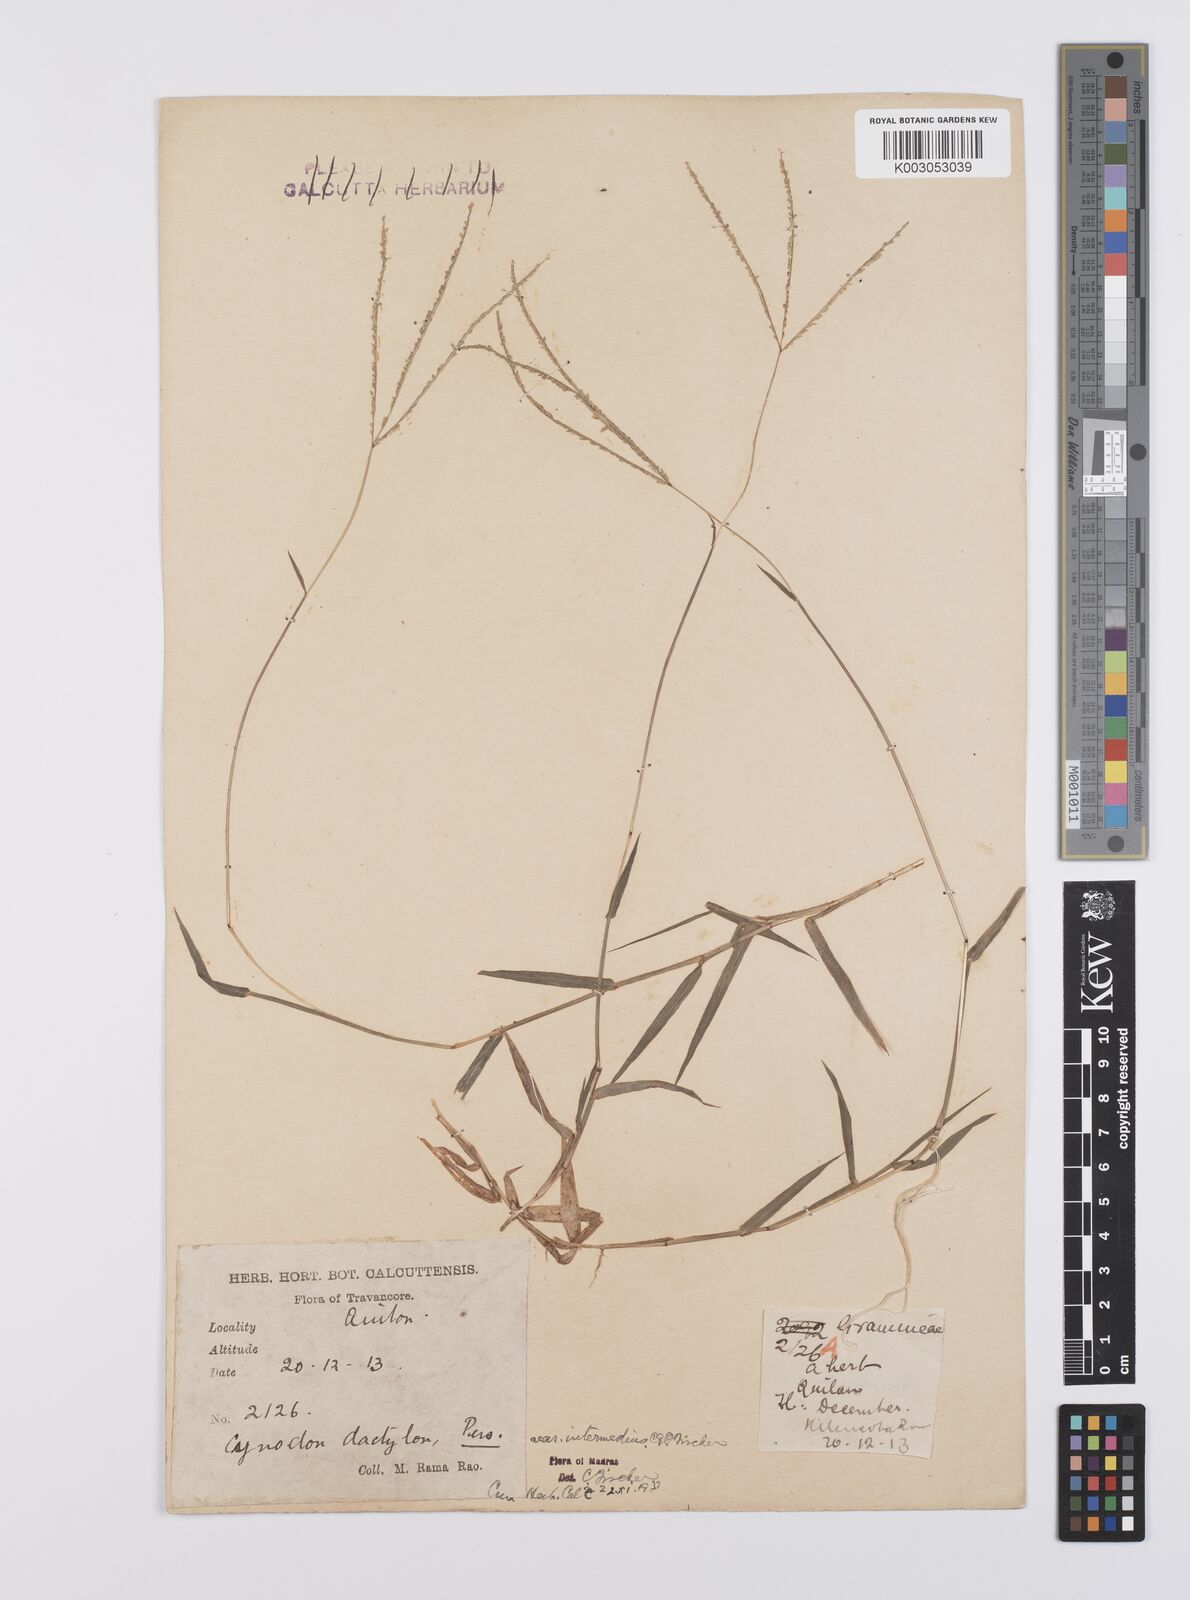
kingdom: Plantae
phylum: Tracheophyta
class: Liliopsida
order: Poales
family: Poaceae
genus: Cynodon
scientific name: Cynodon radiatus
